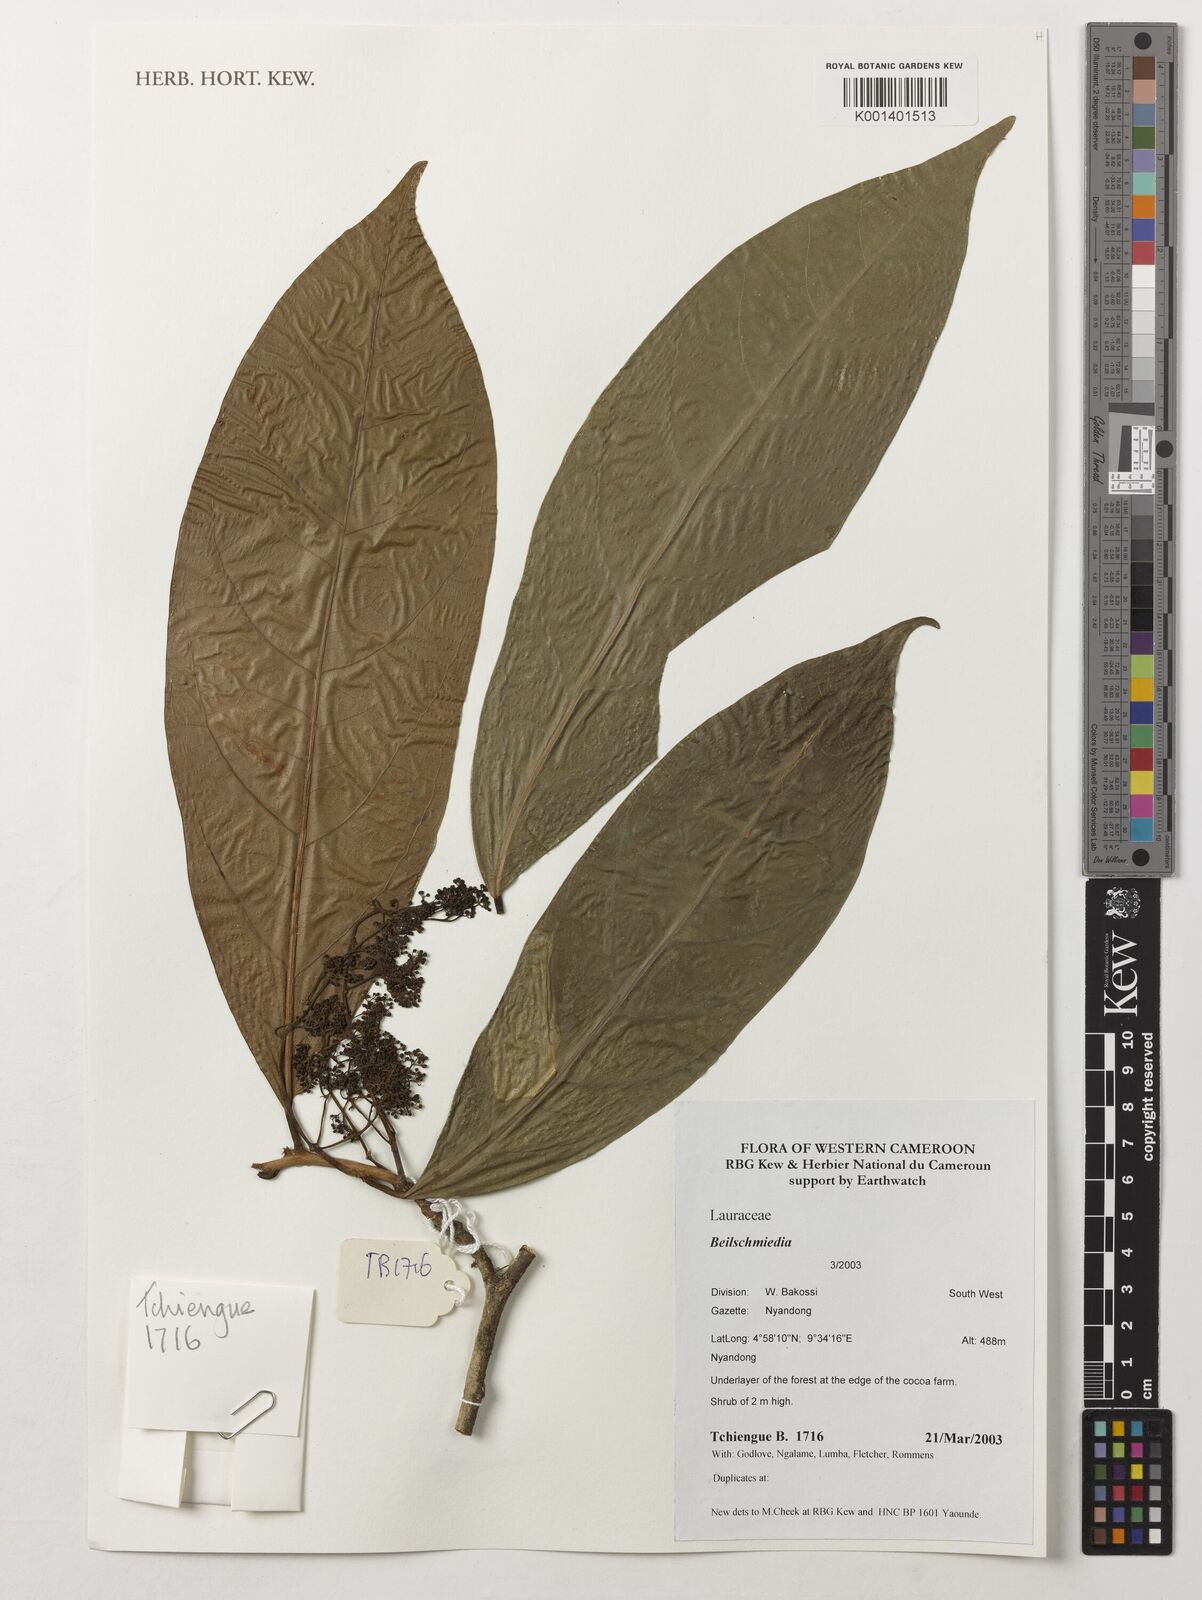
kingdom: Plantae
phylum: Tracheophyta
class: Magnoliopsida
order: Laurales
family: Lauraceae
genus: Beilschmiedia
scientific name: Beilschmiedia
